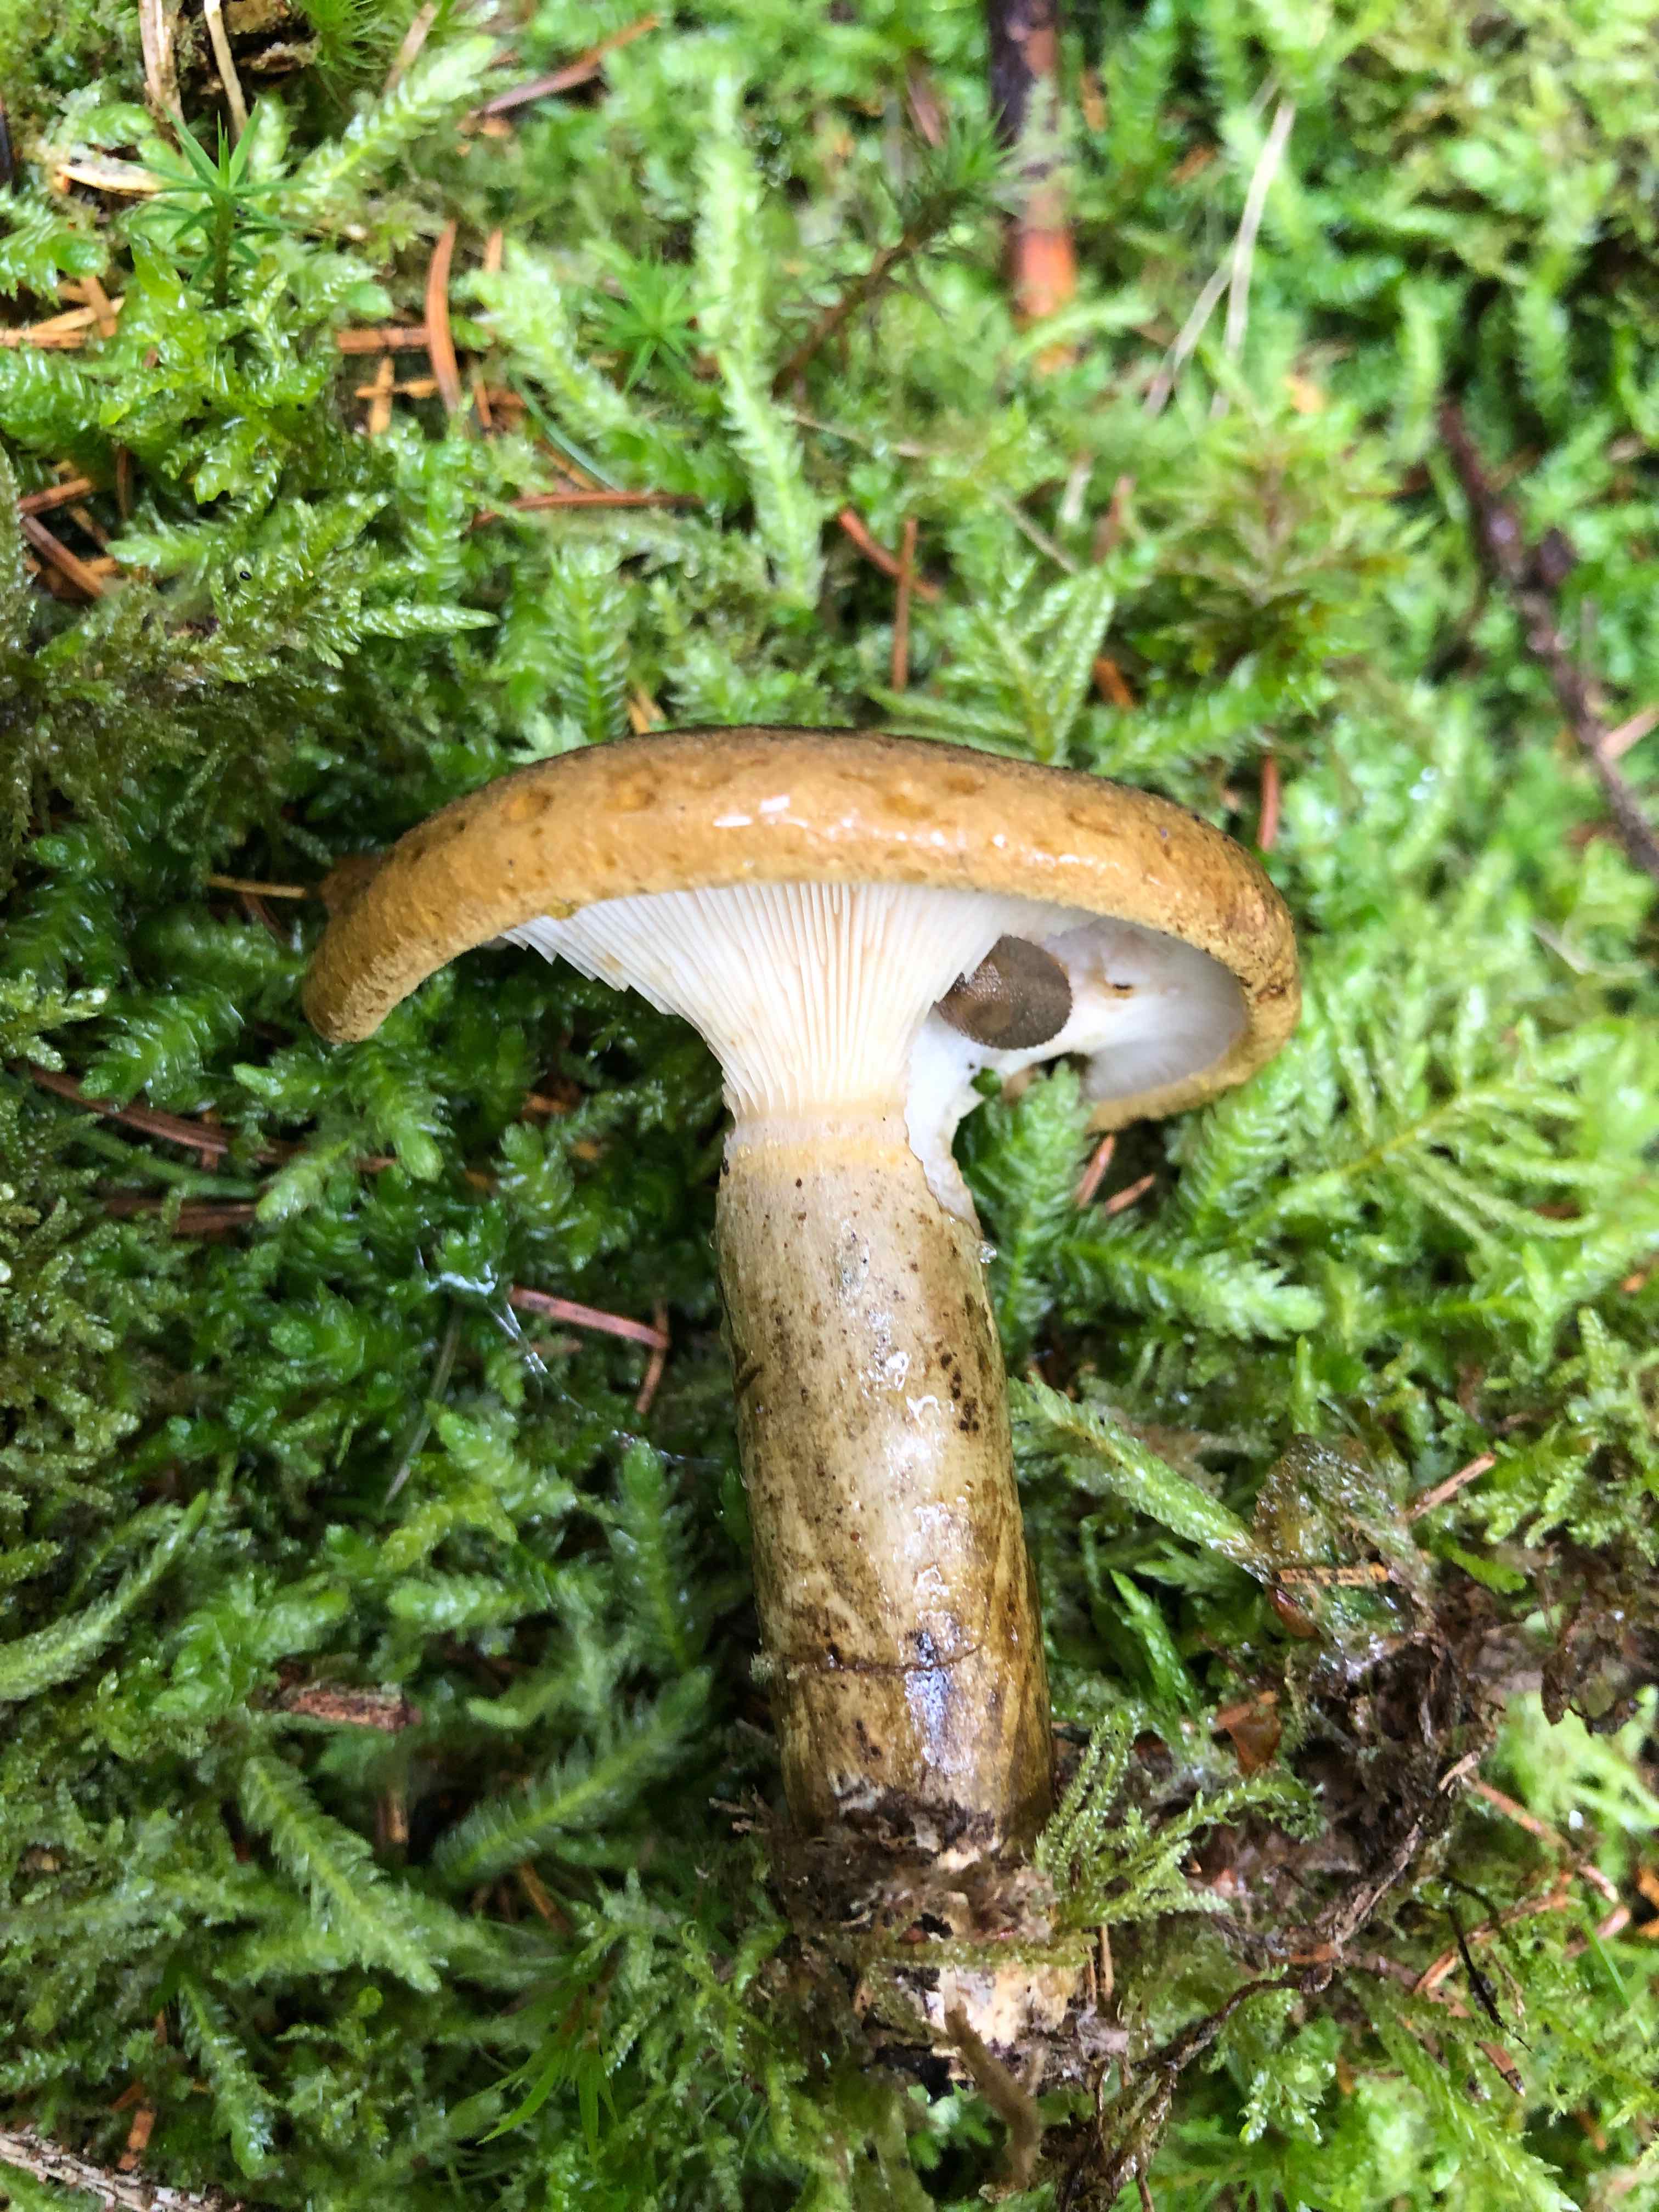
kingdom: Fungi
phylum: Basidiomycota
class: Agaricomycetes
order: Russulales
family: Russulaceae
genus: Lactarius
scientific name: Lactarius necator
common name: manddraber-mælkehat
